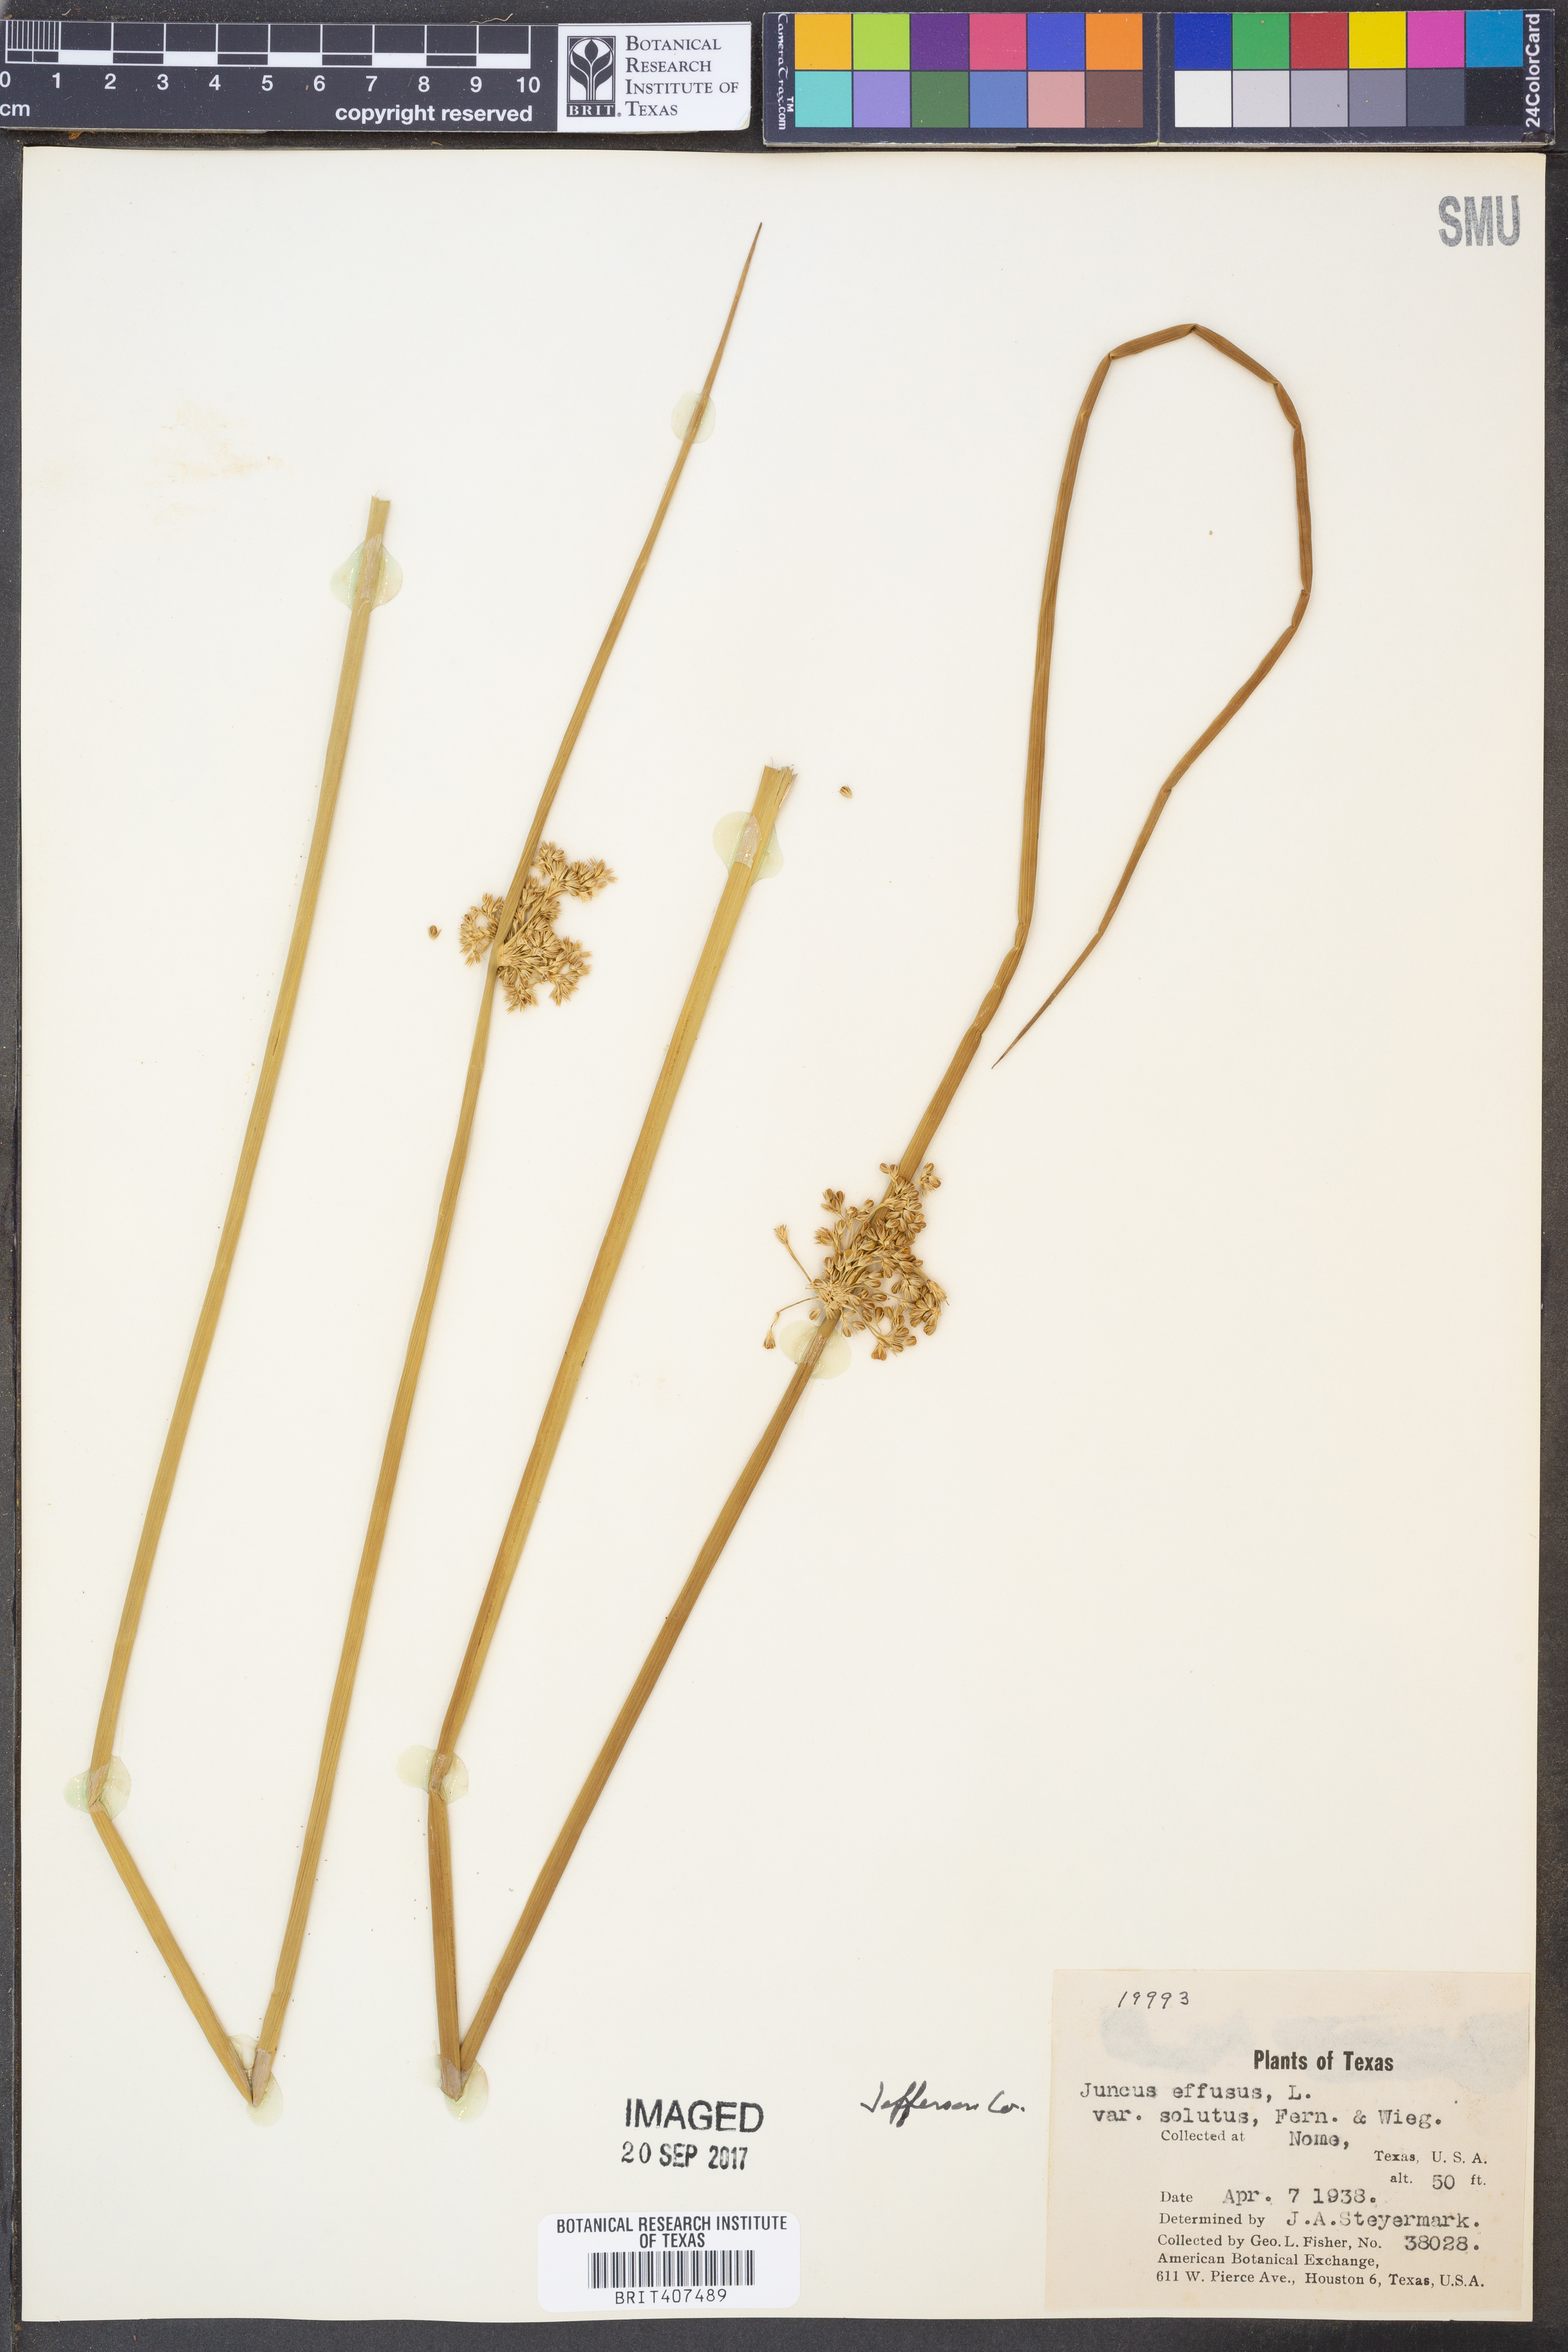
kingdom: Plantae
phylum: Tracheophyta
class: Liliopsida
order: Poales
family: Juncaceae
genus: Juncus
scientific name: Juncus effusus
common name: Soft rush
